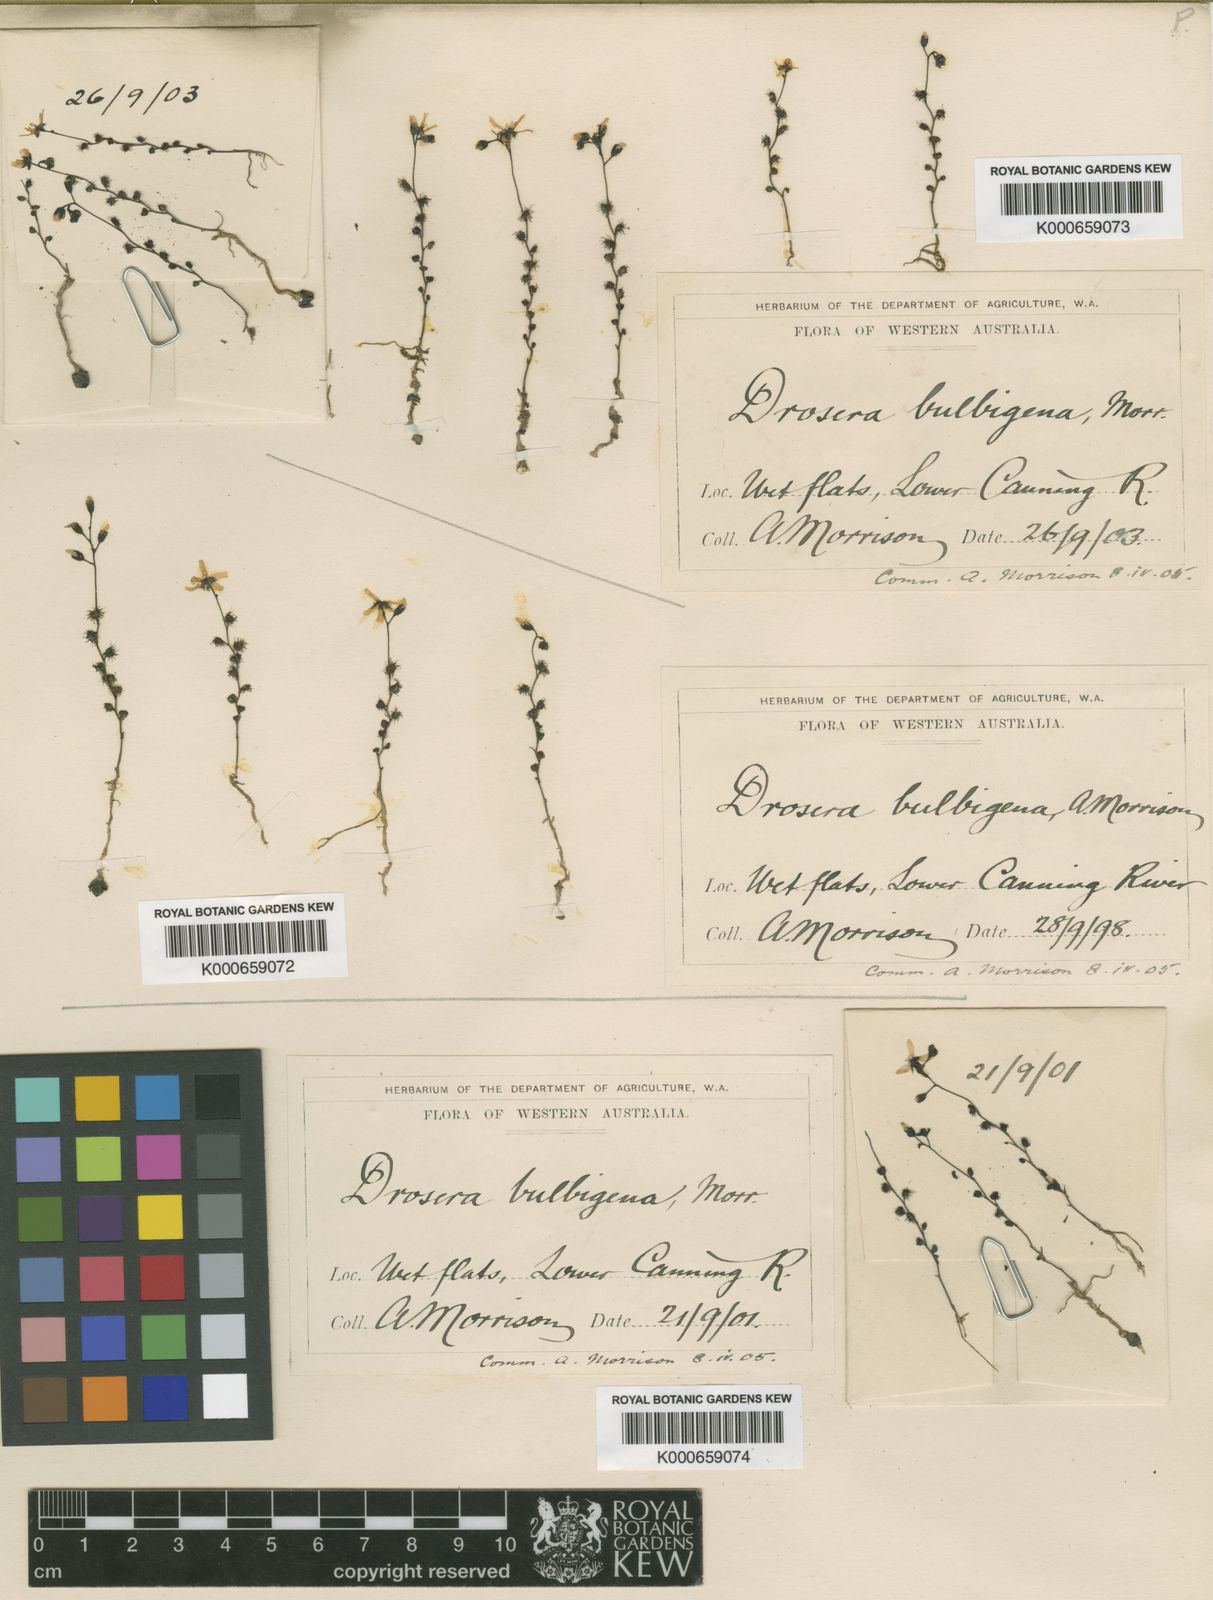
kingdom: Plantae
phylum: Tracheophyta
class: Magnoliopsida
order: Caryophyllales
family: Droseraceae
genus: Drosera
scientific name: Drosera bulbigena
